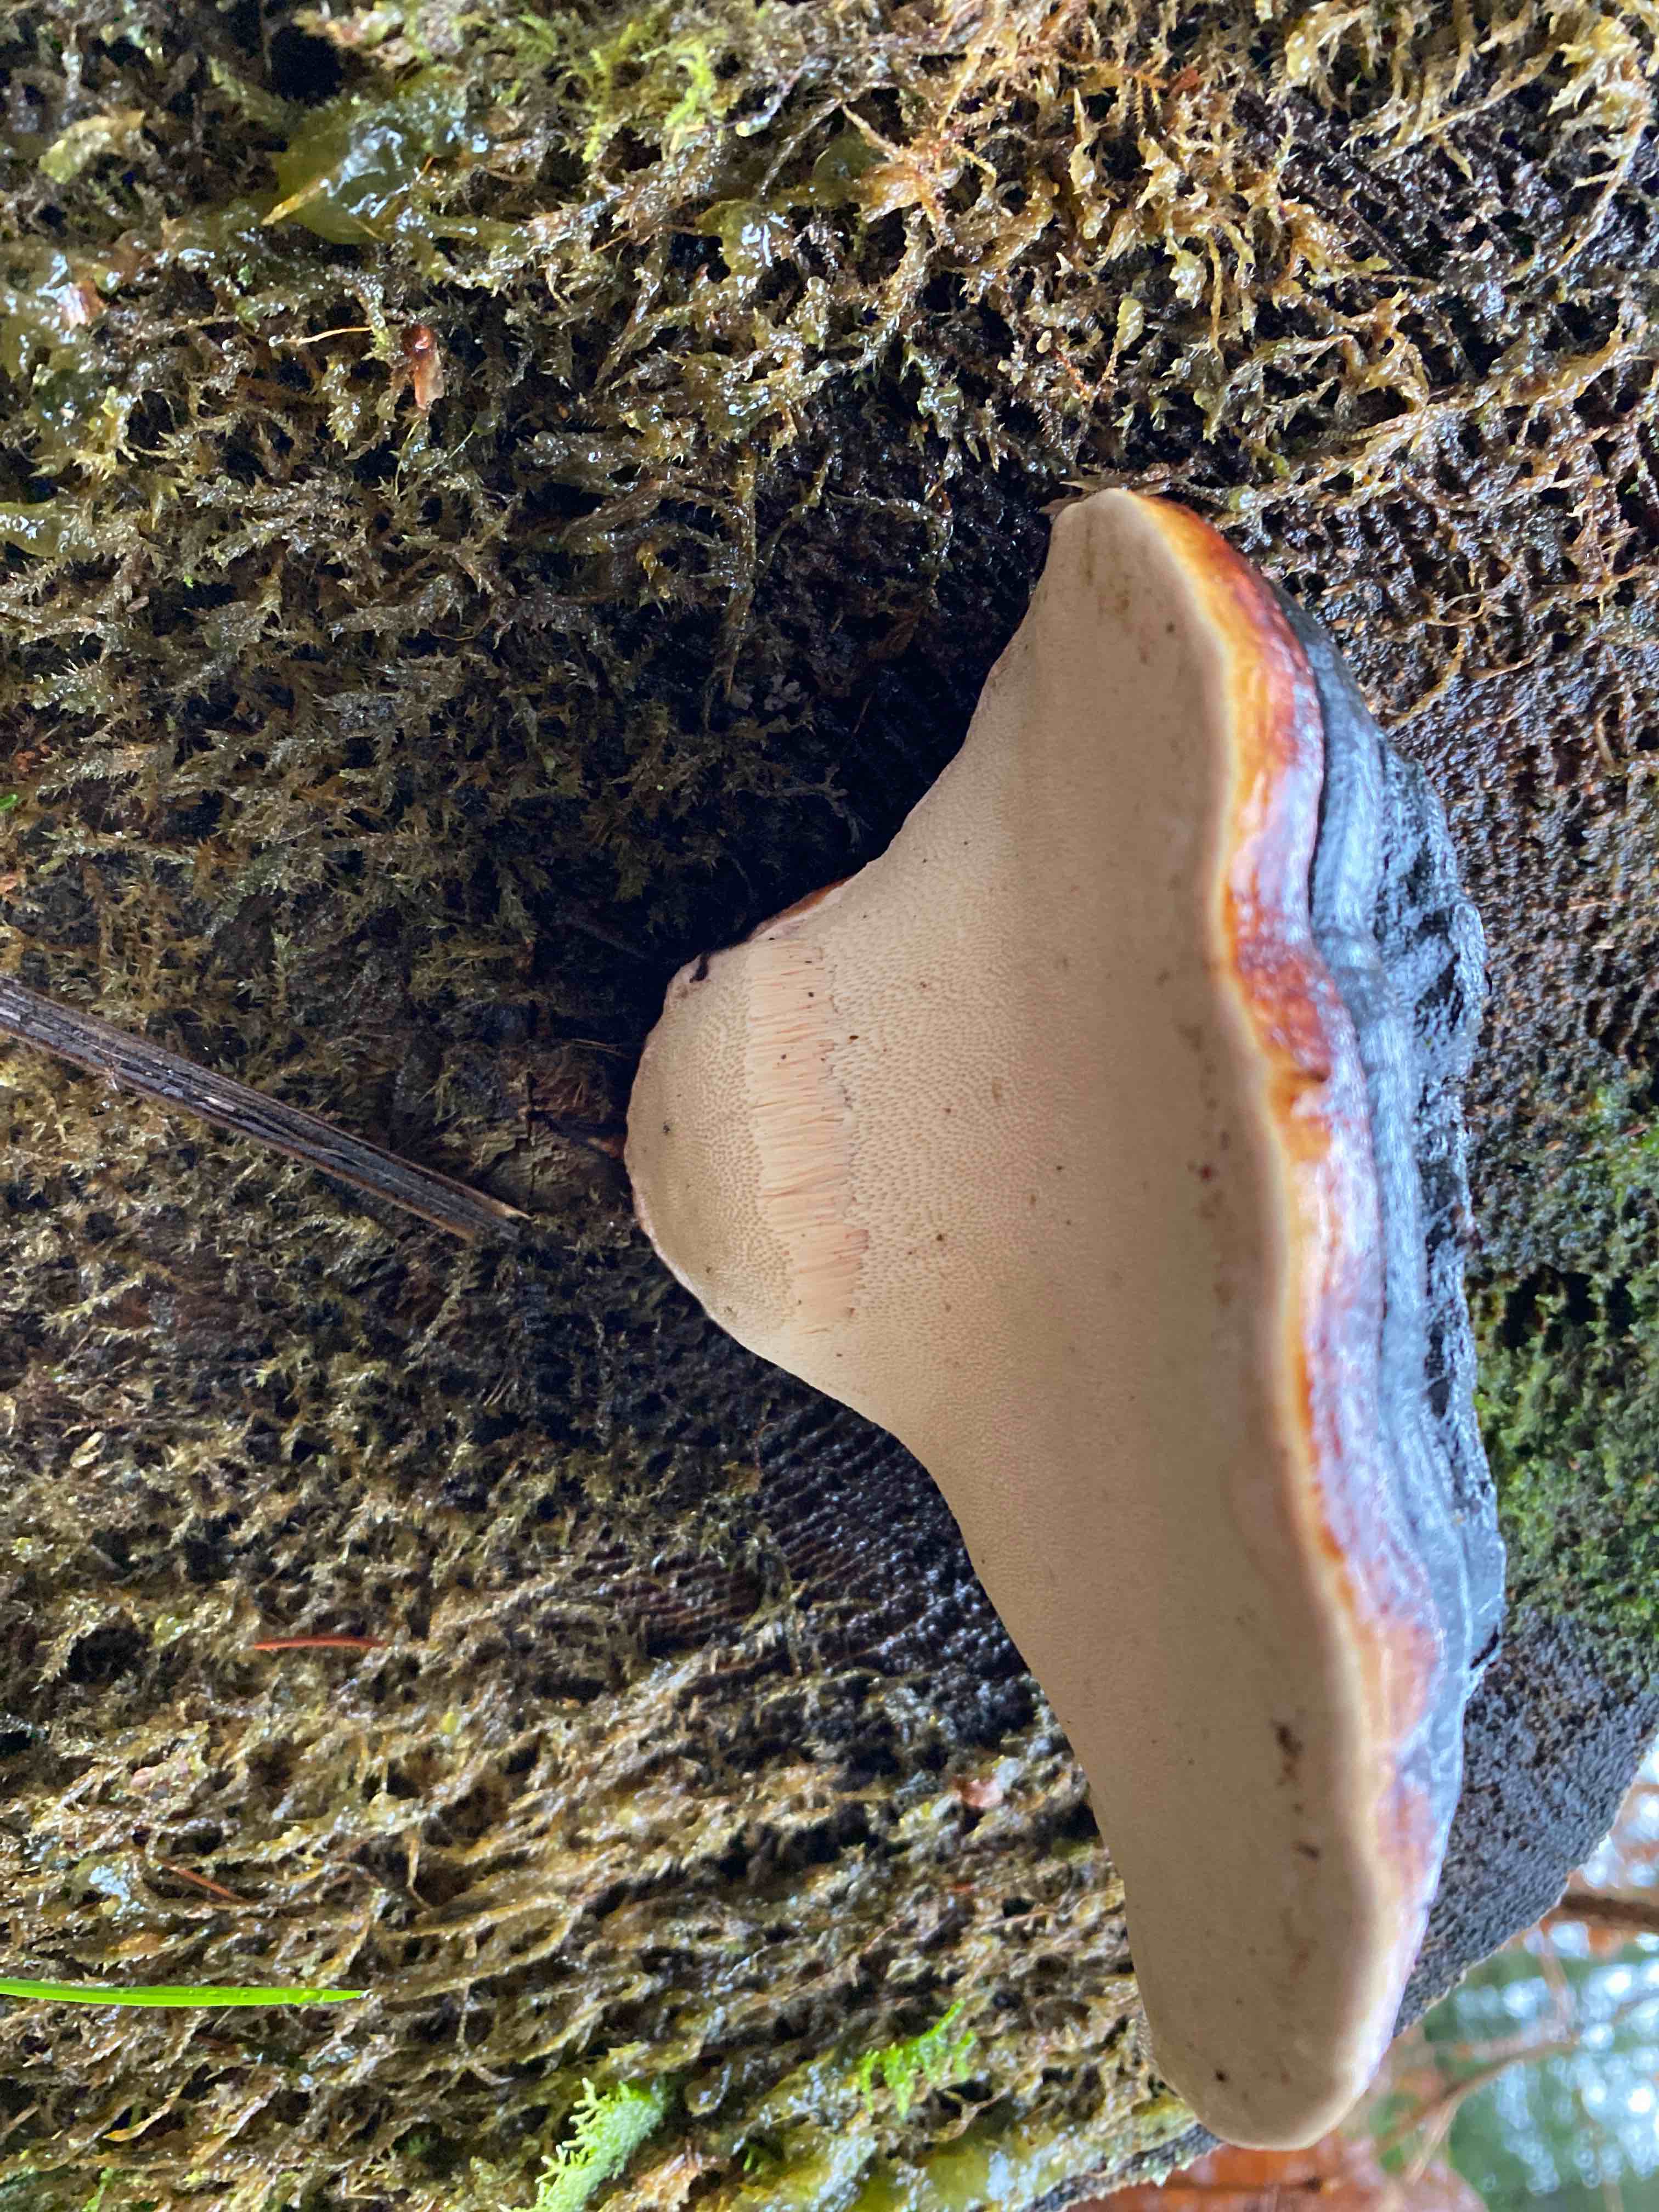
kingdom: Fungi
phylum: Basidiomycota
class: Agaricomycetes
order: Polyporales
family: Fomitopsidaceae
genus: Fomitopsis
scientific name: Fomitopsis pinicola
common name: randbæltet hovporesvamp
